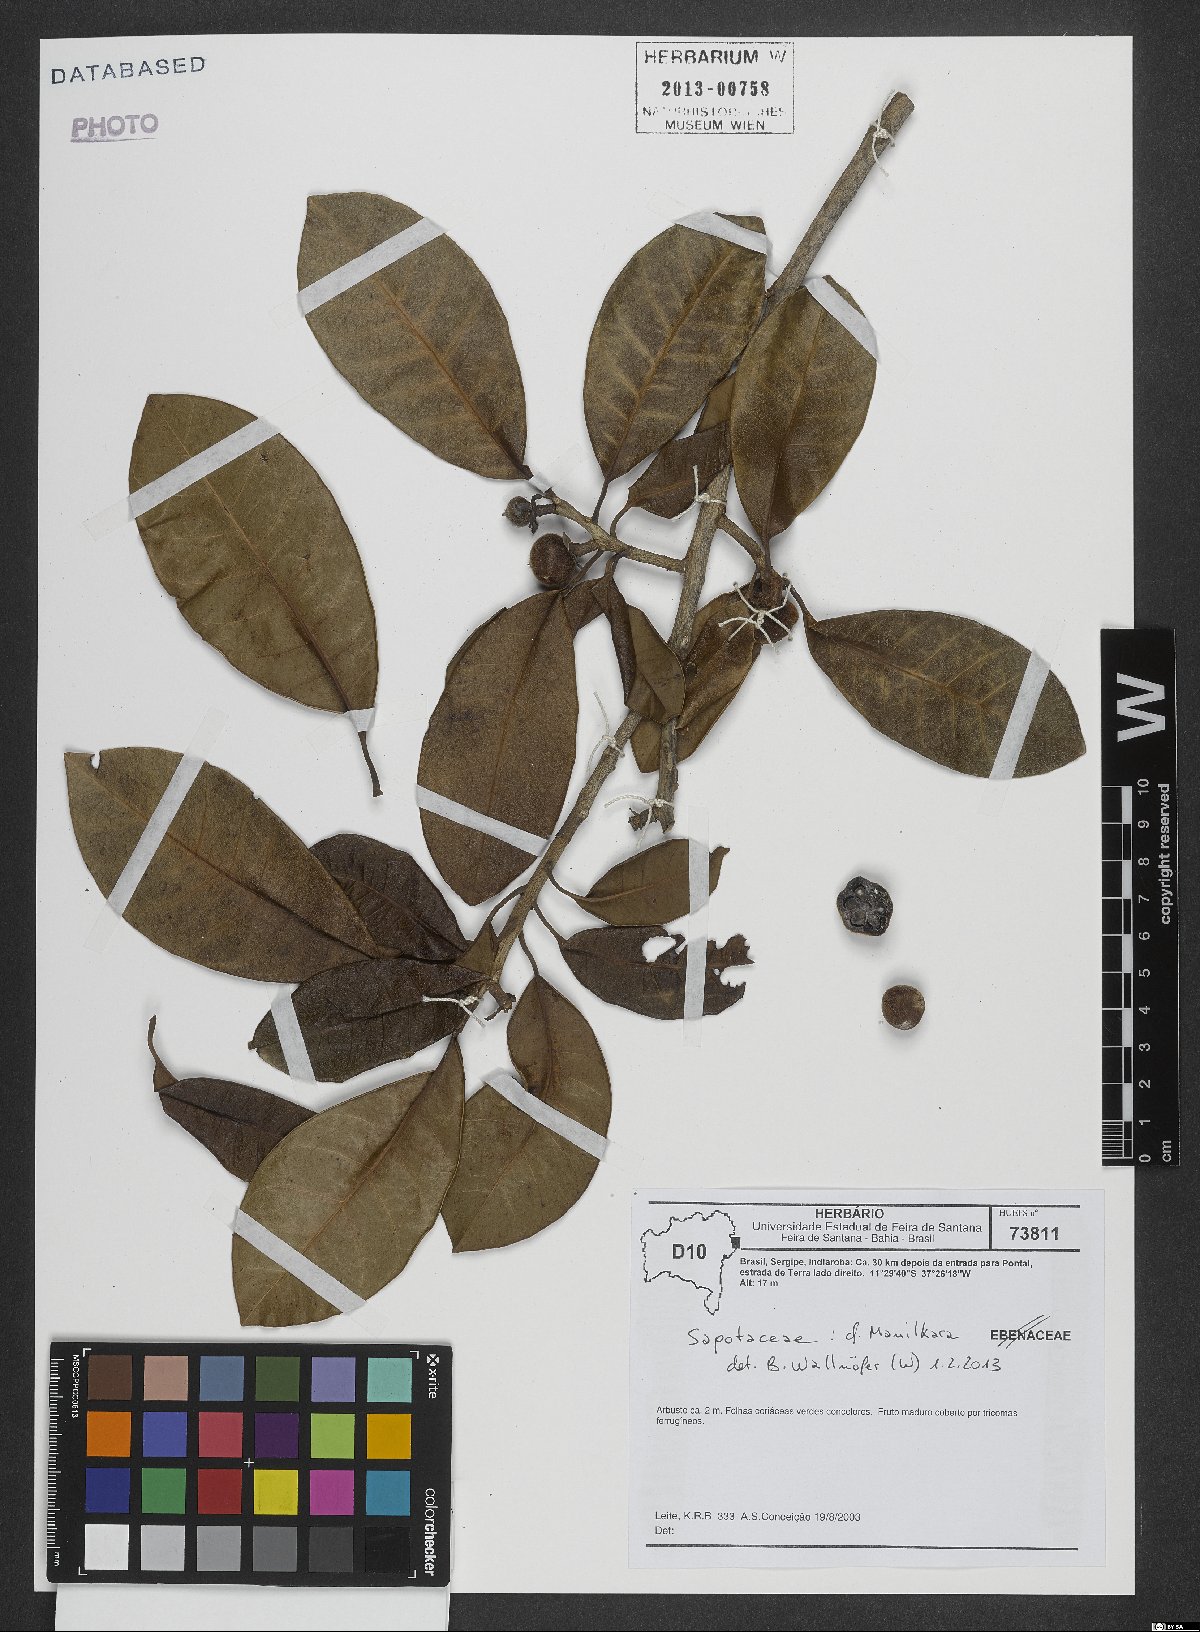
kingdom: Plantae
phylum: Tracheophyta
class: Magnoliopsida
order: Ericales
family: Sapotaceae
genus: Manilkara
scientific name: Manilkara
